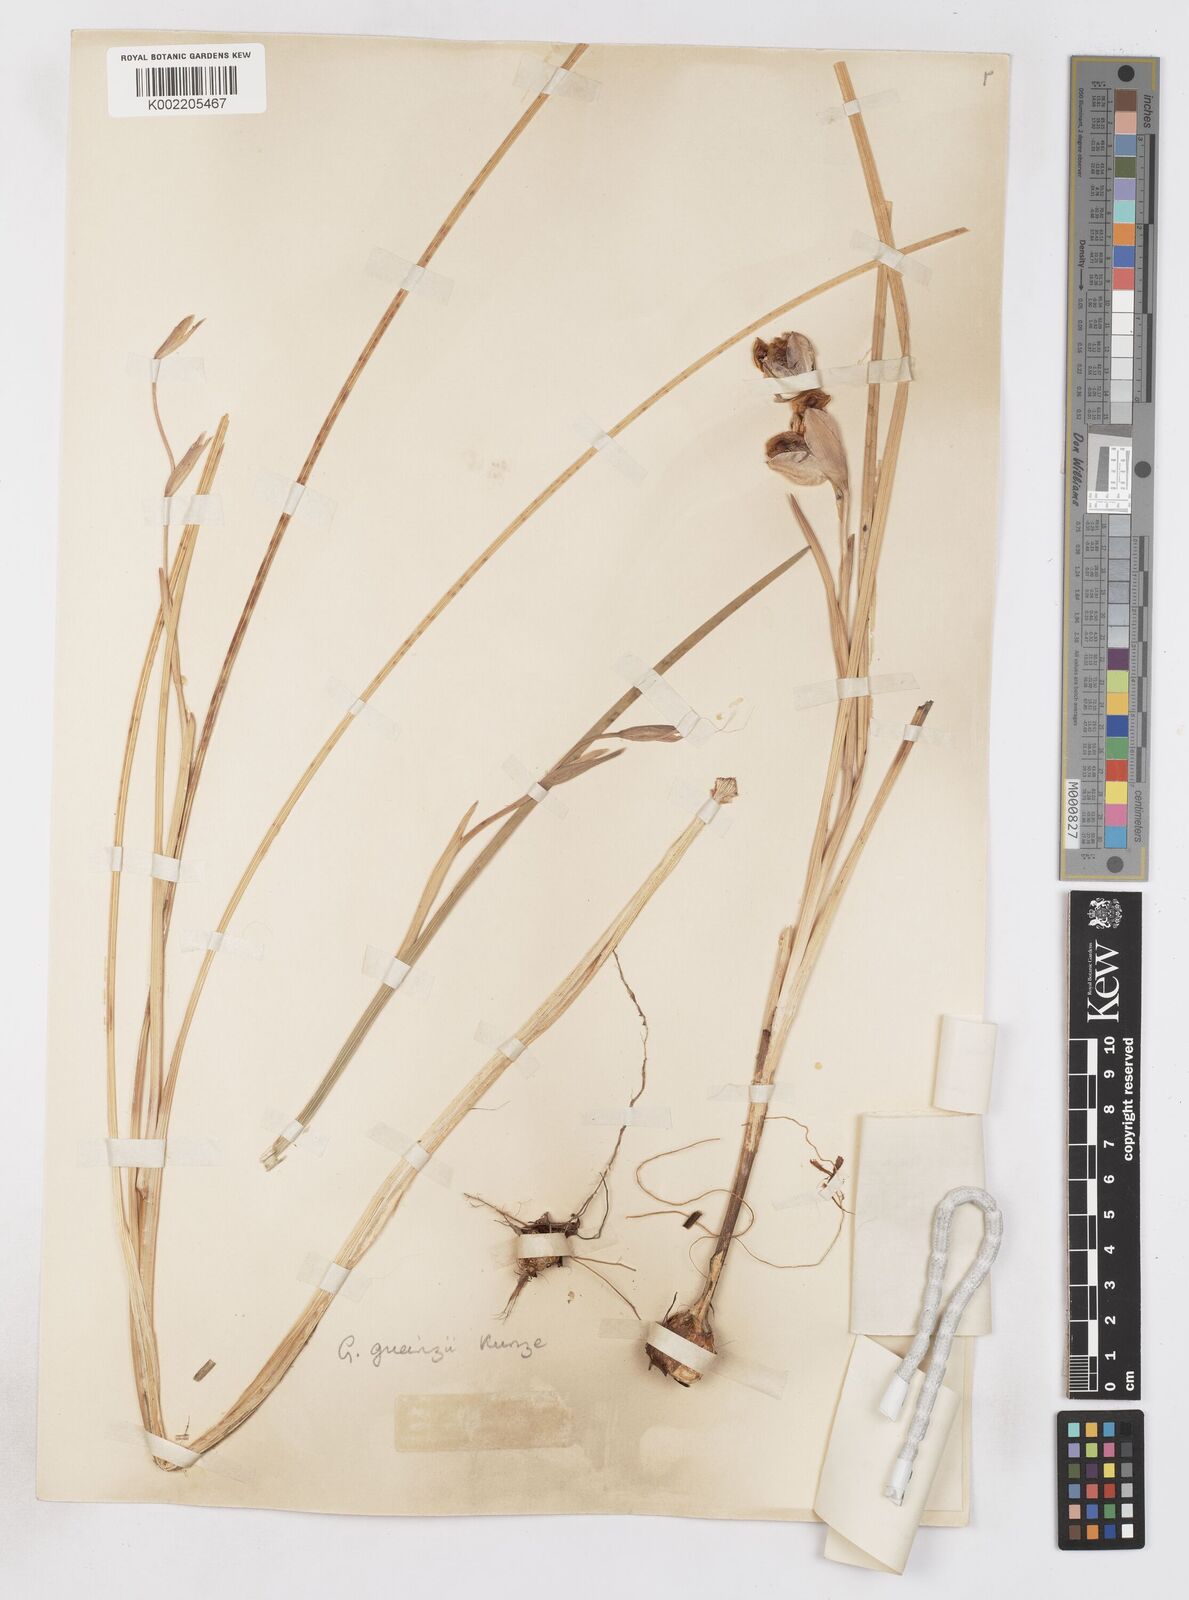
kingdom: Plantae
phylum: Tracheophyta
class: Liliopsida
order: Asparagales
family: Iridaceae
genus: Gladiolus
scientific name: Gladiolus gueinzii
